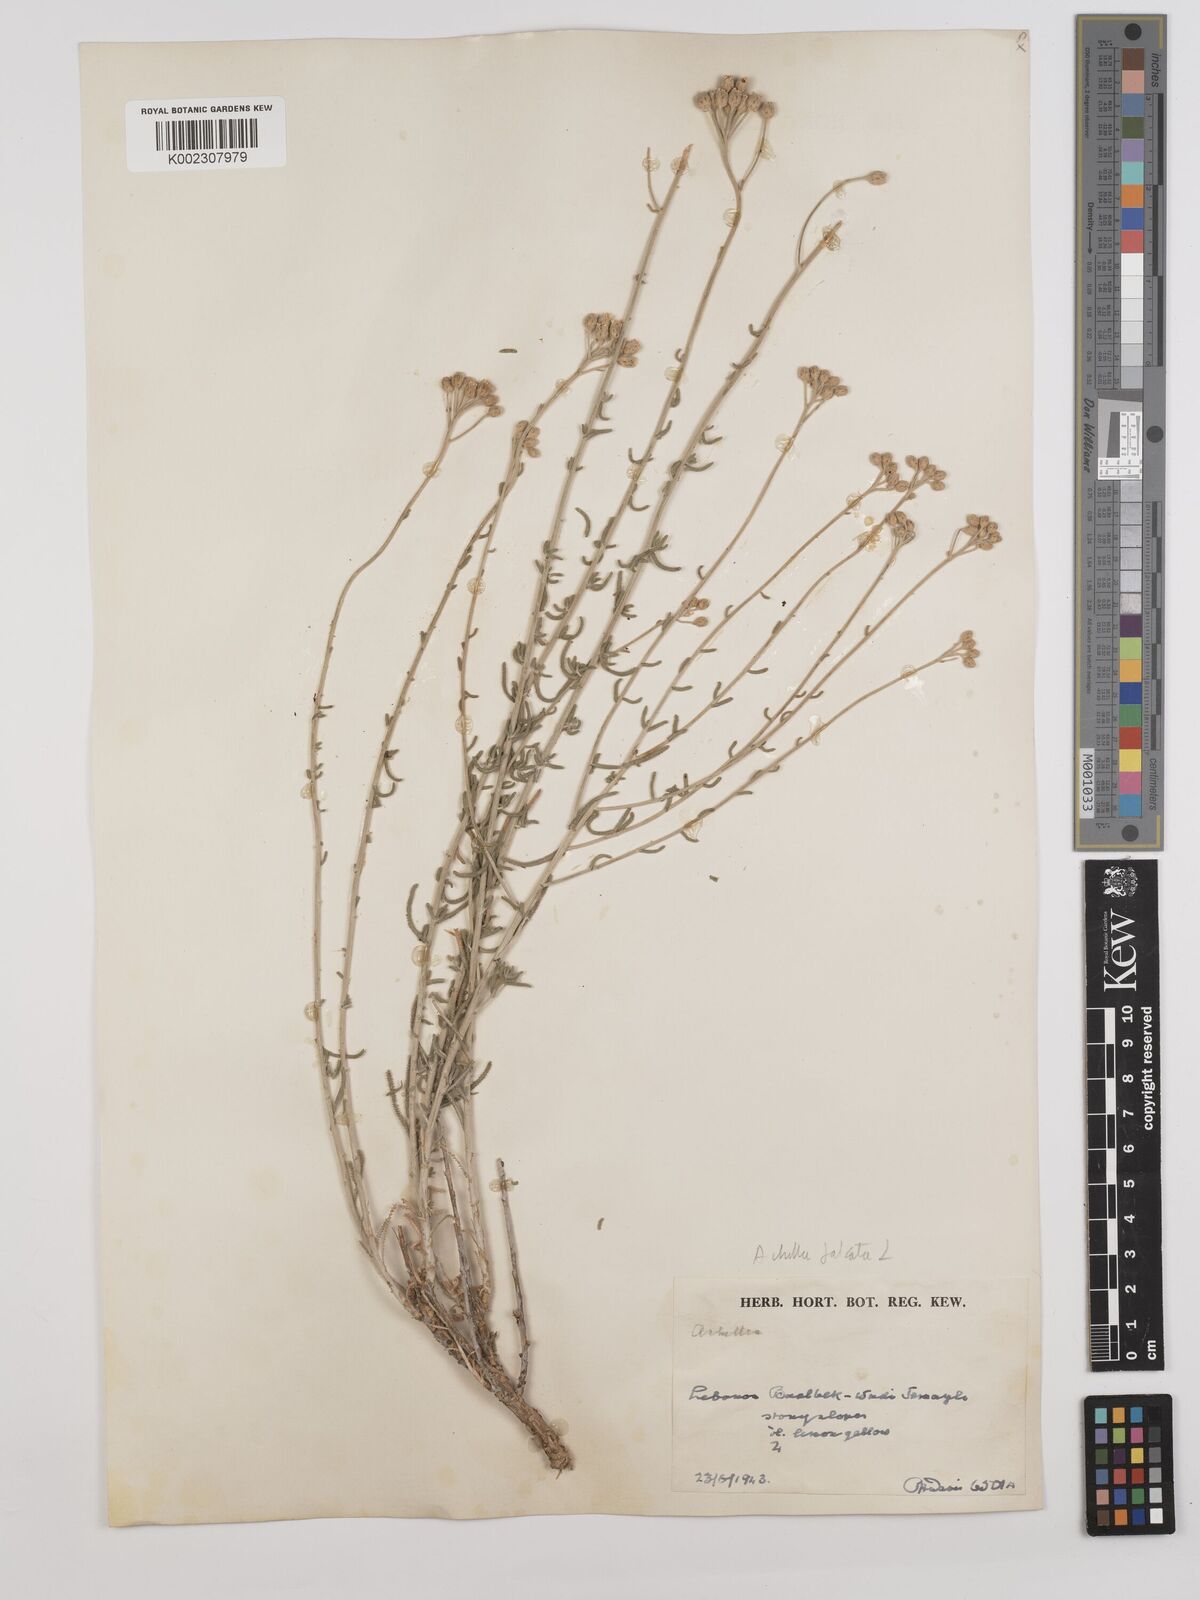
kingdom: Plantae
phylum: Tracheophyta
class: Magnoliopsida
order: Asterales
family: Asteraceae
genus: Achillea
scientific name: Achillea falcata
